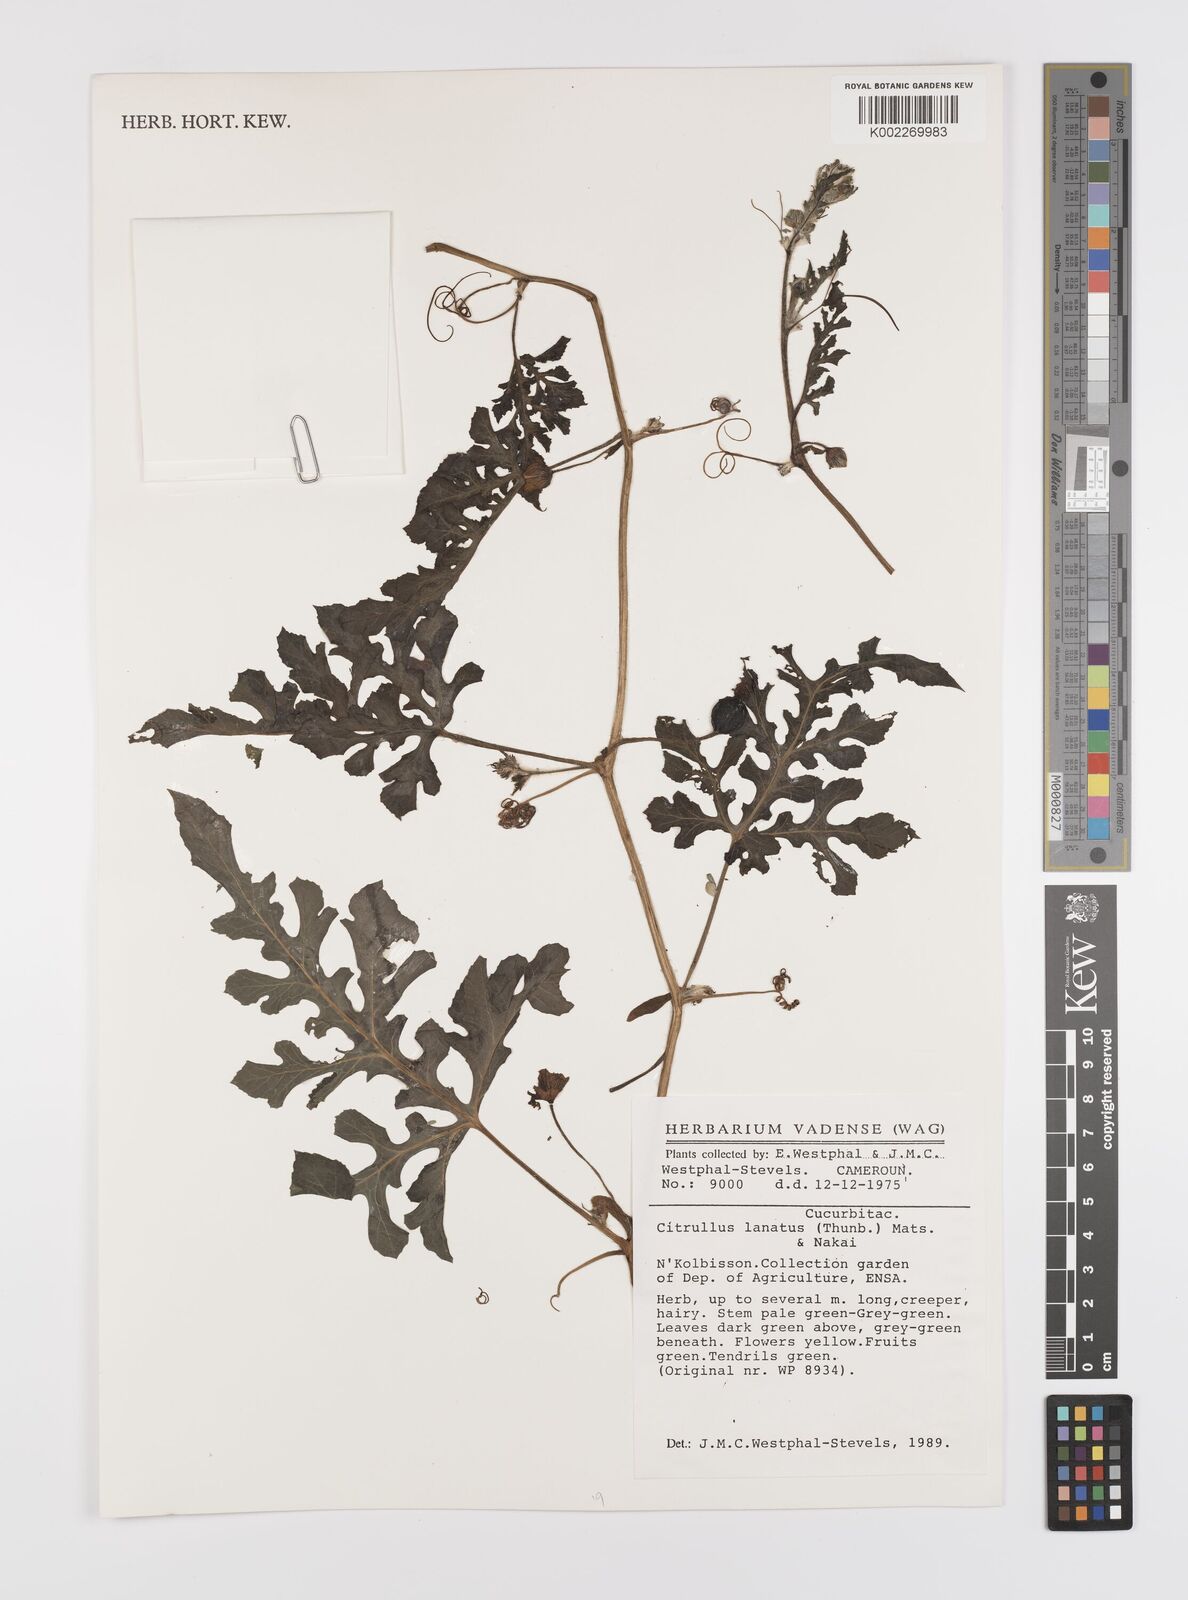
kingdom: Plantae
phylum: Tracheophyta
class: Magnoliopsida
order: Cucurbitales
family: Cucurbitaceae
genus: Citrullus
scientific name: Citrullus lanatus
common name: Watermelon
